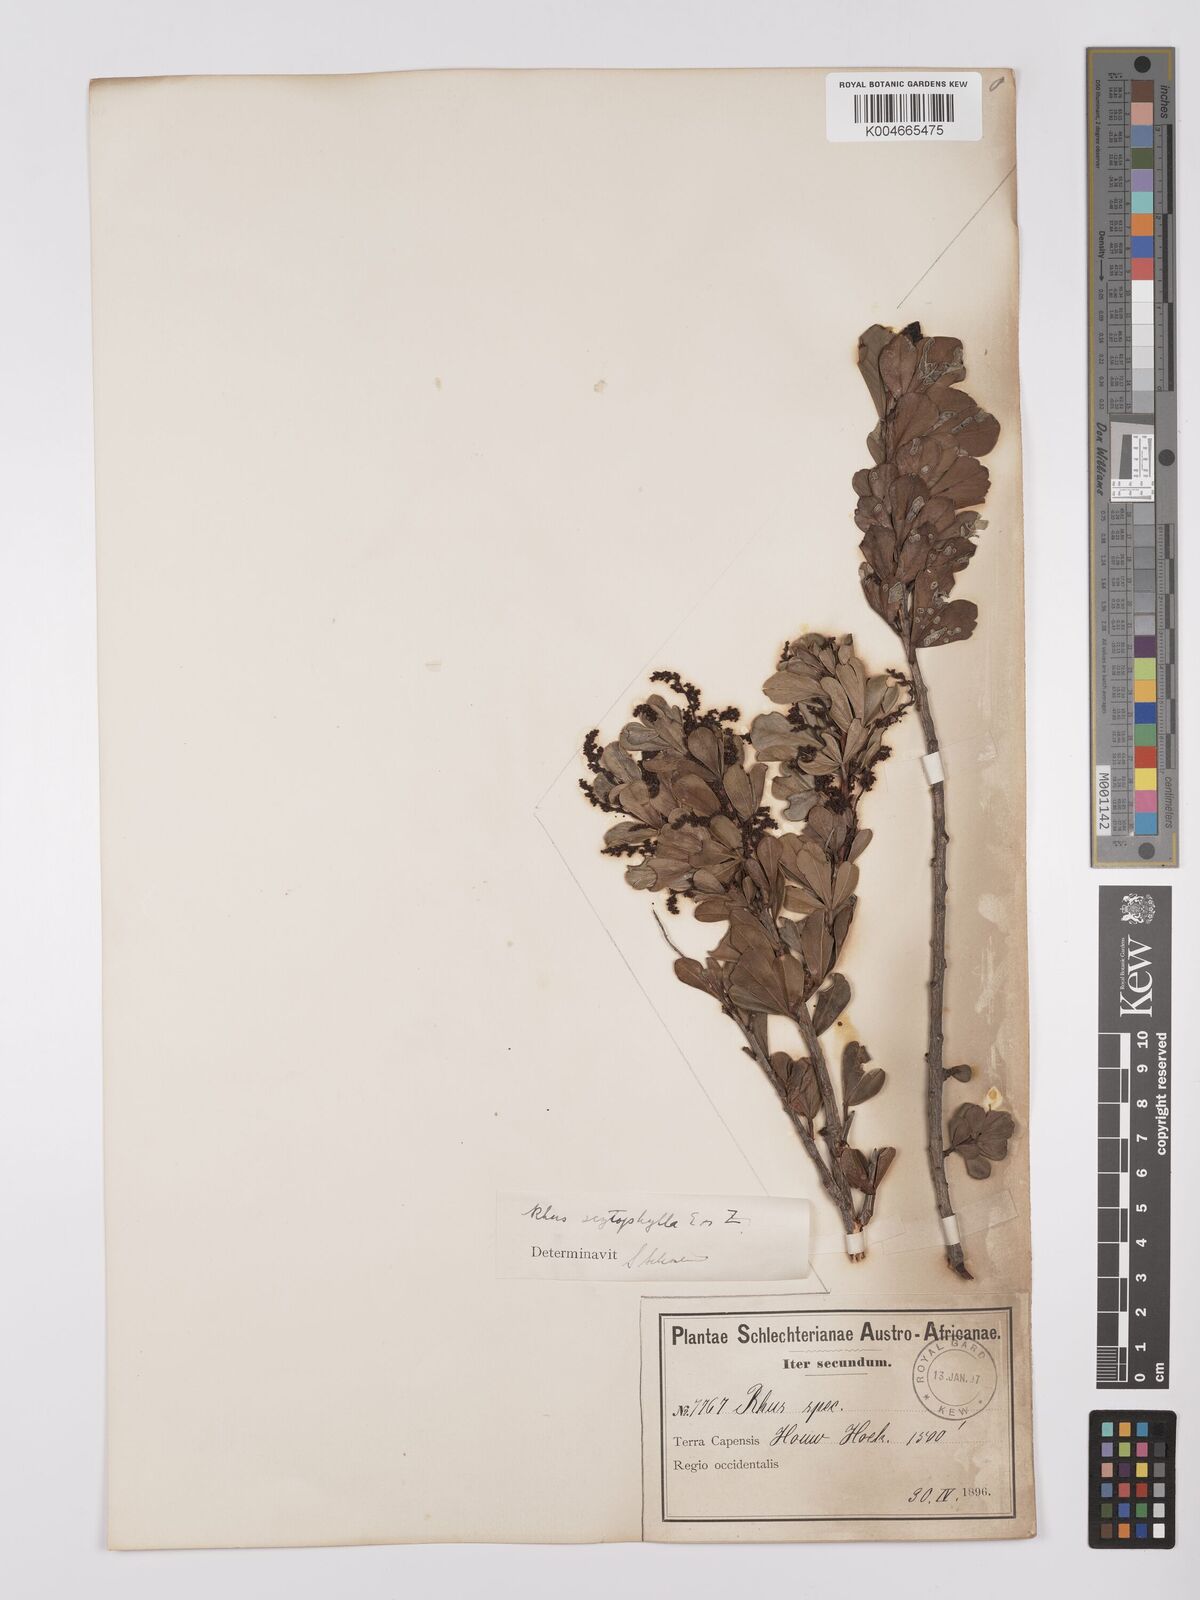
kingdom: Plantae
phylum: Tracheophyta
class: Magnoliopsida
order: Sapindales
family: Anacardiaceae
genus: Searsia
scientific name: Searsia scytophylla
